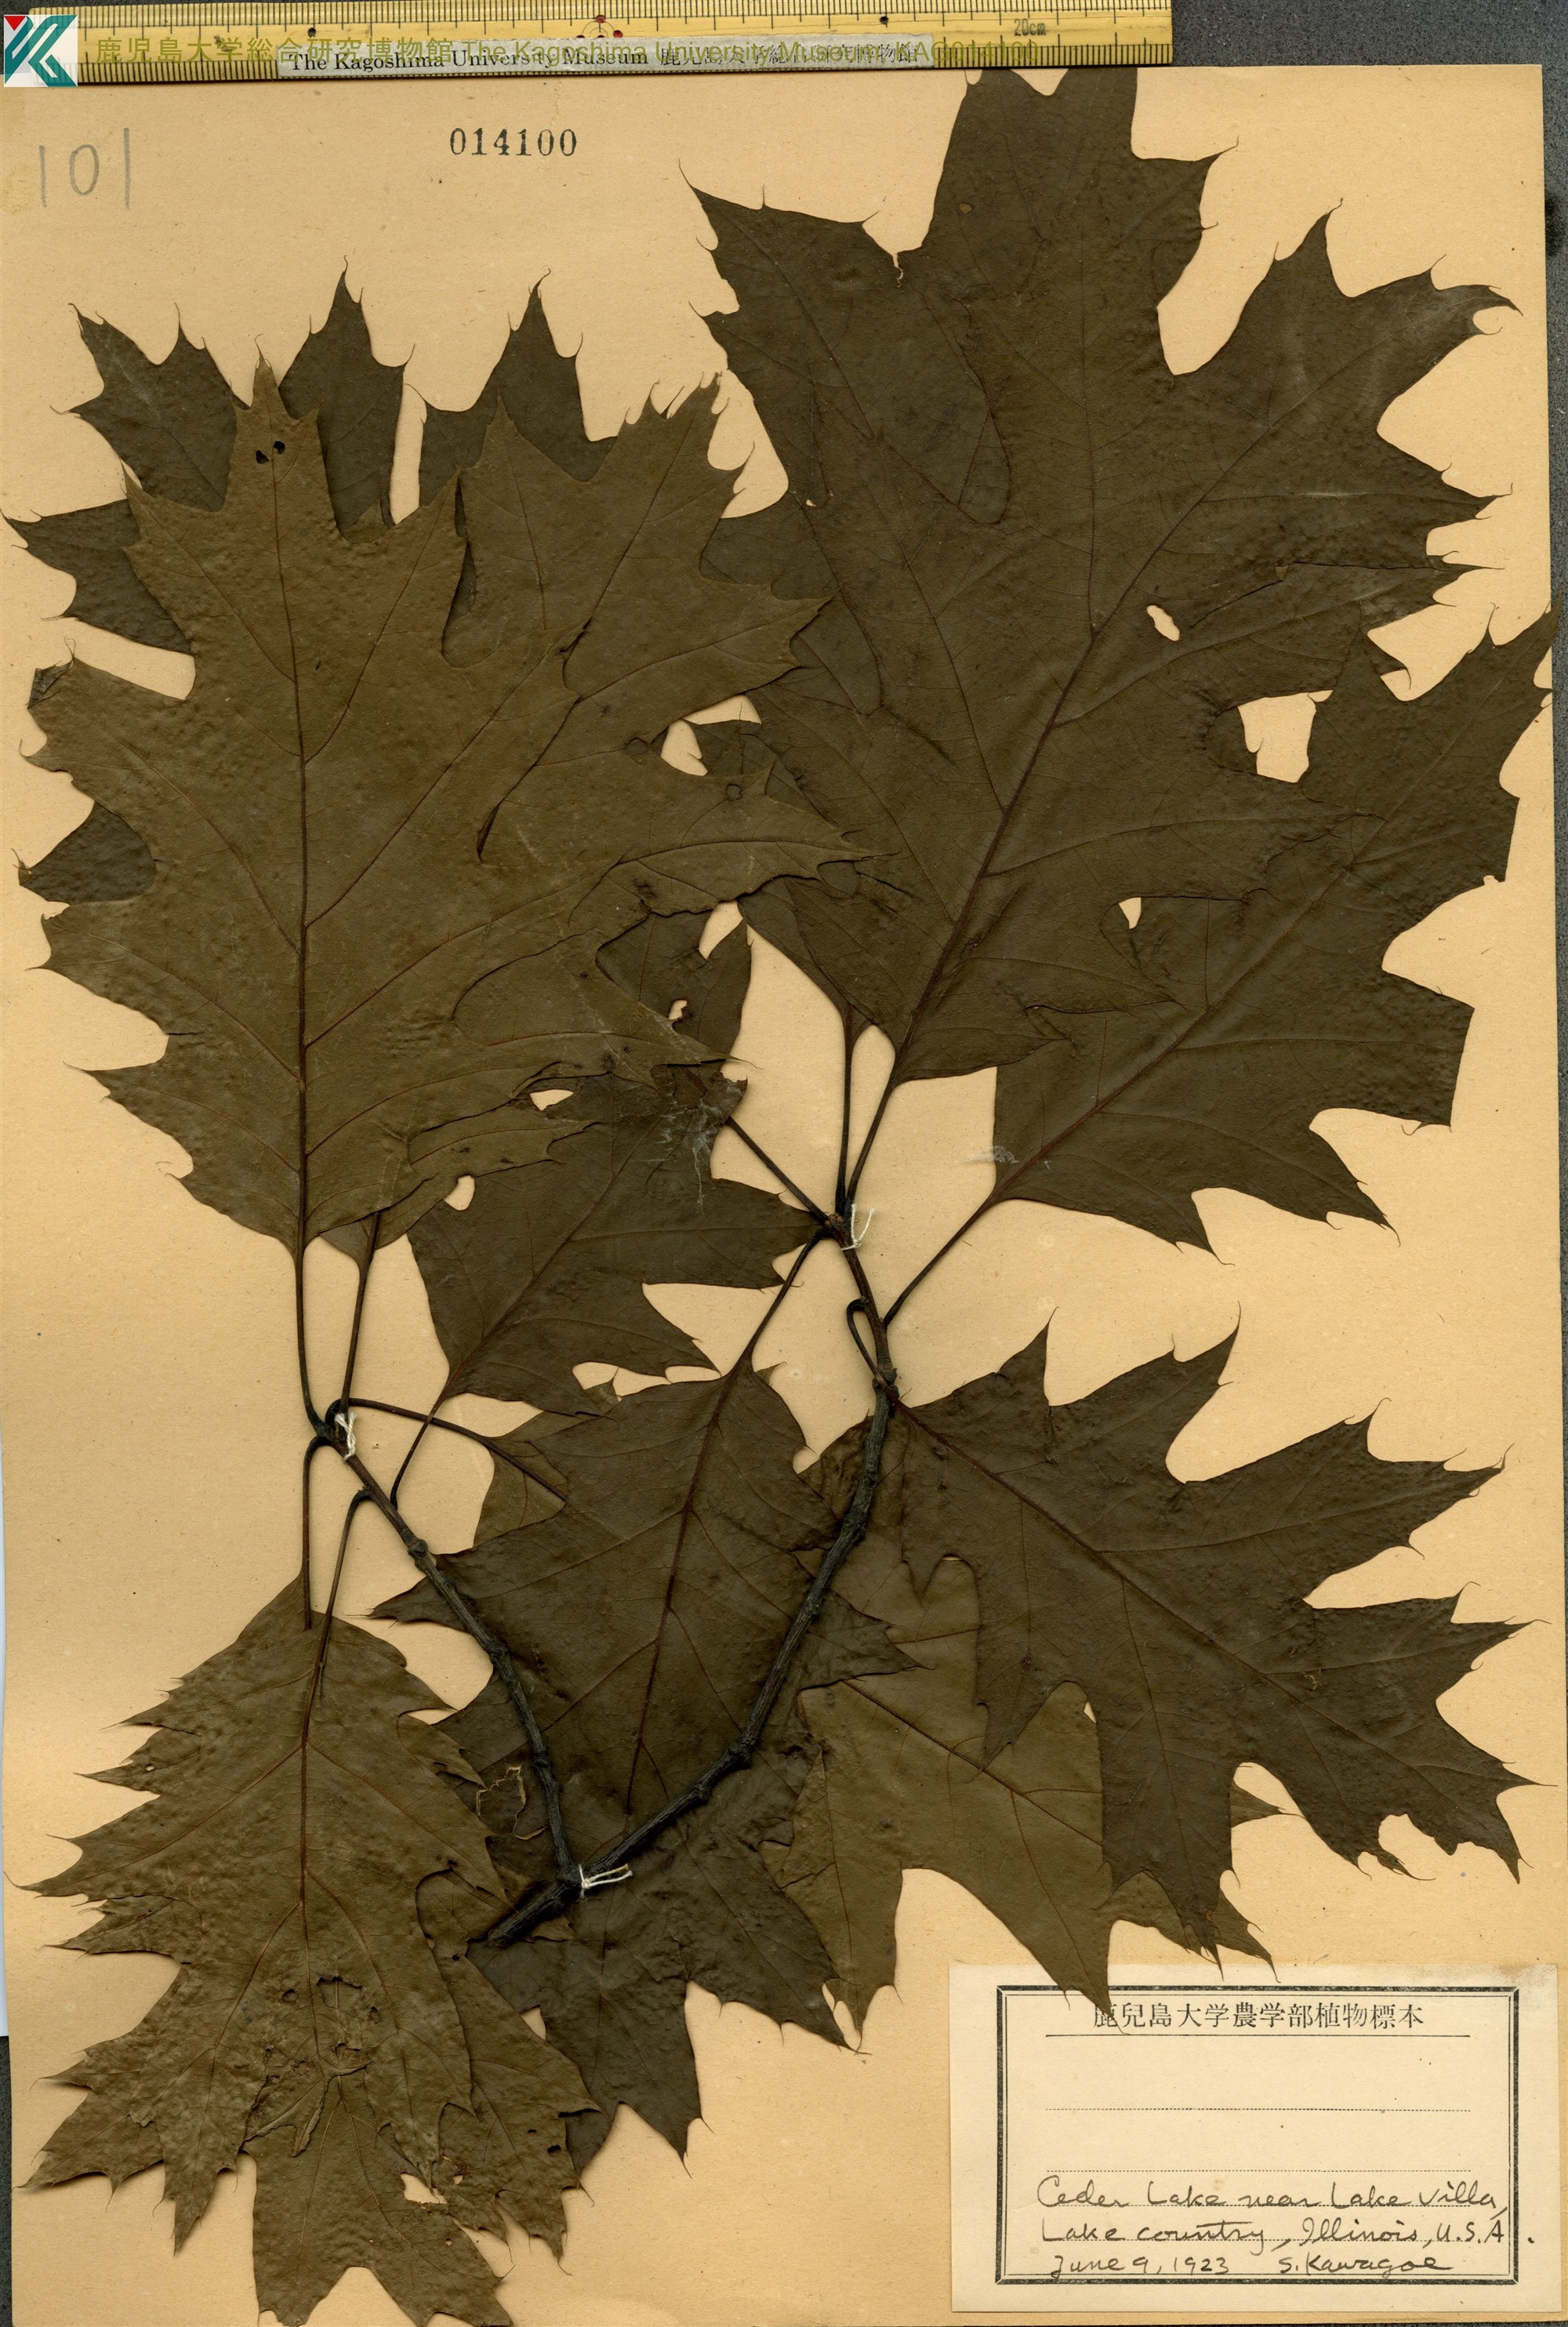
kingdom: Plantae
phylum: Tracheophyta
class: Magnoliopsida
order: Fagales
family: Fagaceae
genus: Quercus
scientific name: Quercus palustris
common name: Pin oak
